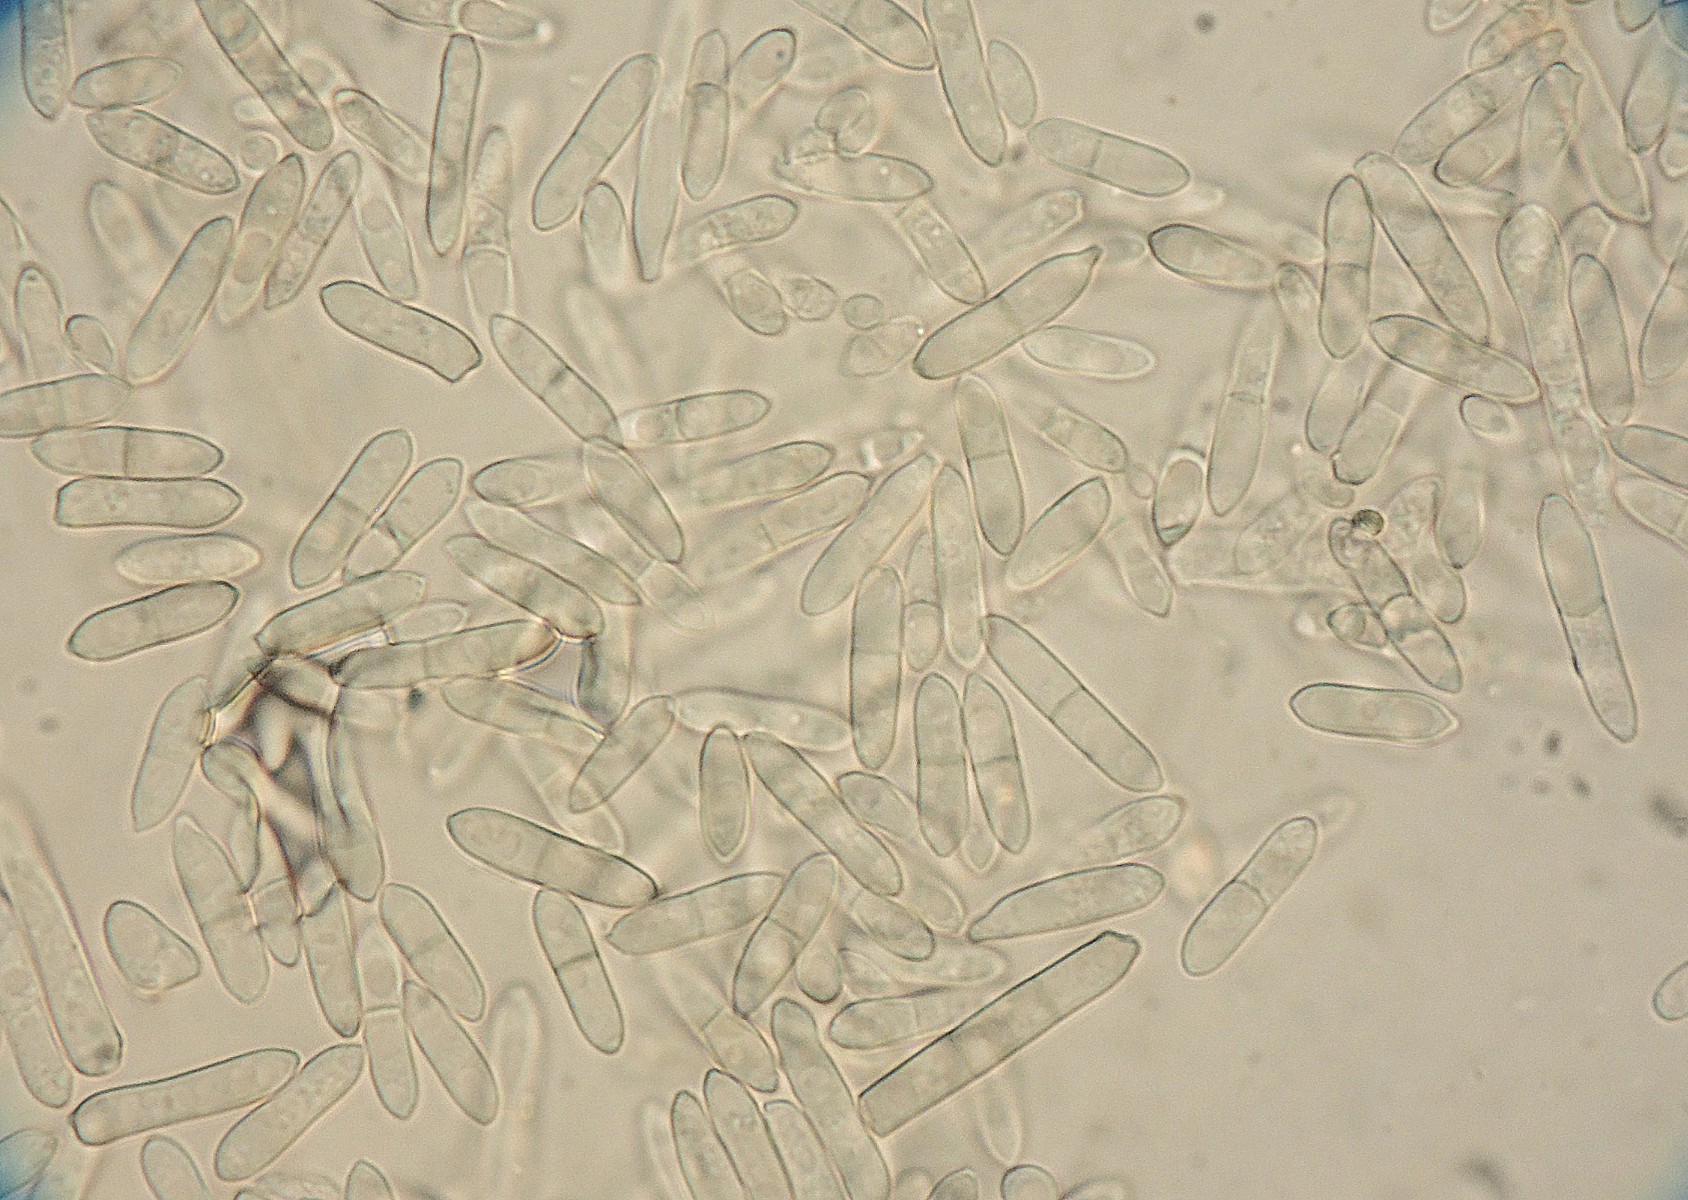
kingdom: Fungi
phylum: Ascomycota
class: Sordariomycetes
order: Xylariales
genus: Polyscytalum
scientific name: Polyscytalum berkeleyi
